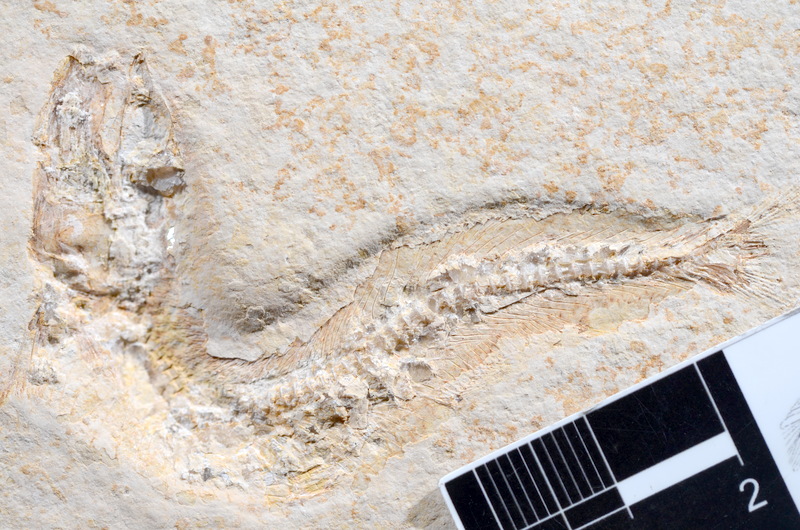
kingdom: Animalia
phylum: Chordata
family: Allothrissopidae
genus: Allothrissops
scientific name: Allothrissops mesogaster
